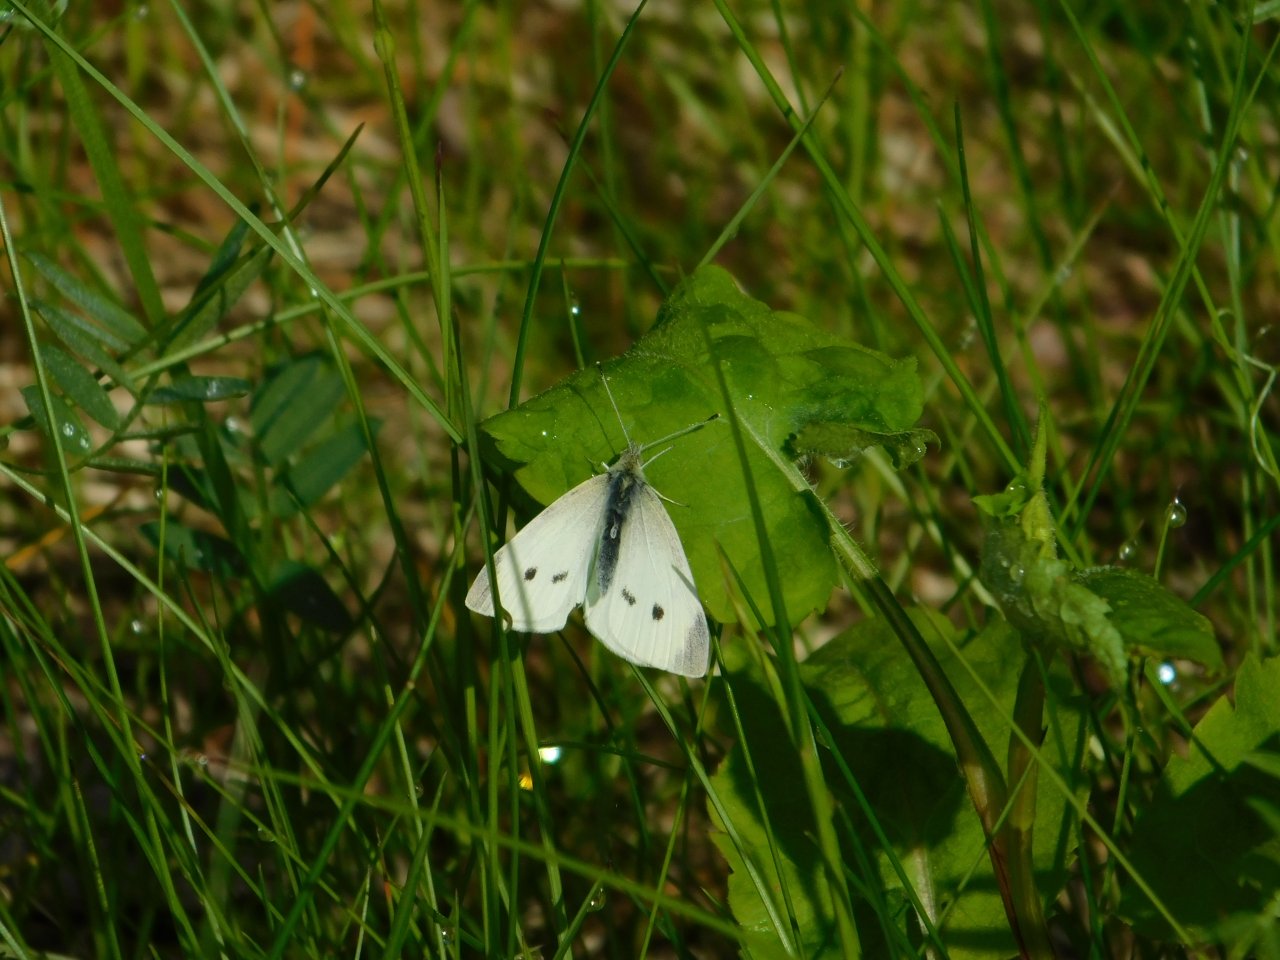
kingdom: Animalia
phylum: Arthropoda
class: Insecta
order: Lepidoptera
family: Pieridae
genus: Pieris
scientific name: Pieris rapae
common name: Cabbage White
